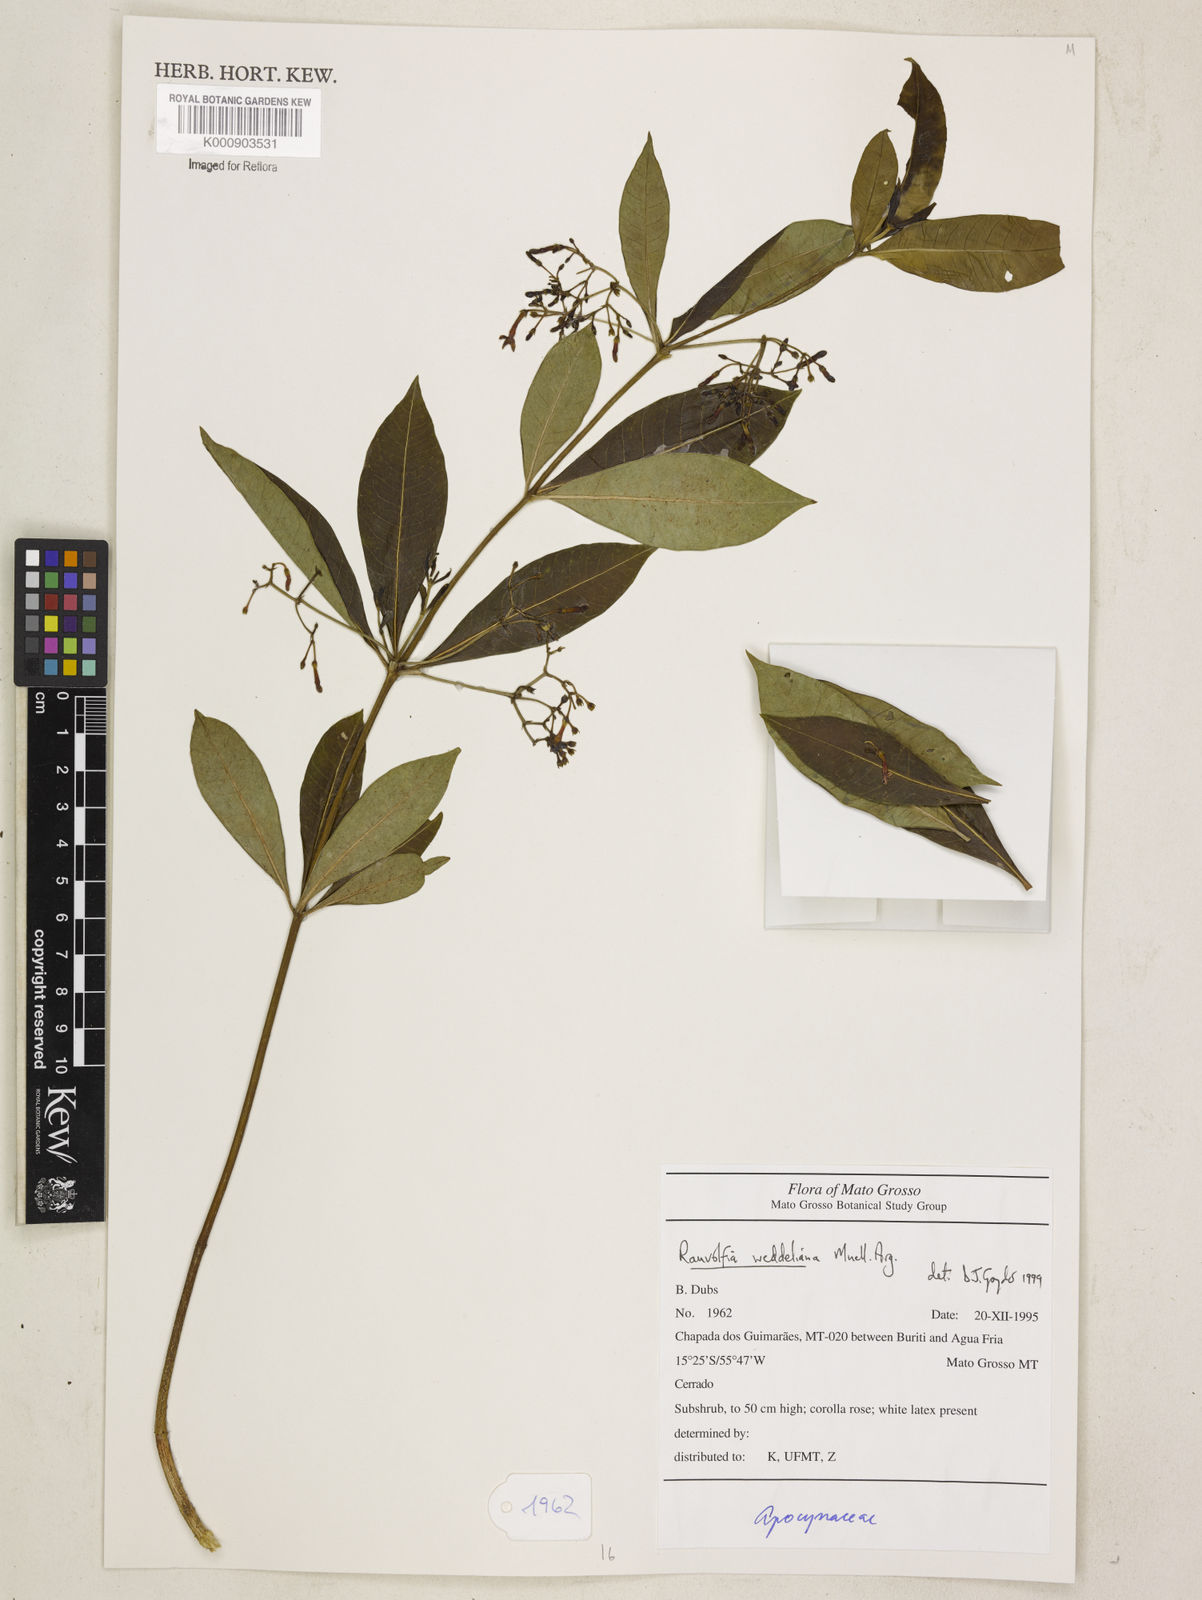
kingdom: Plantae
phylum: Tracheophyta
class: Magnoliopsida
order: Gentianales
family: Apocynaceae
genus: Rauvolfia
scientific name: Rauvolfia
